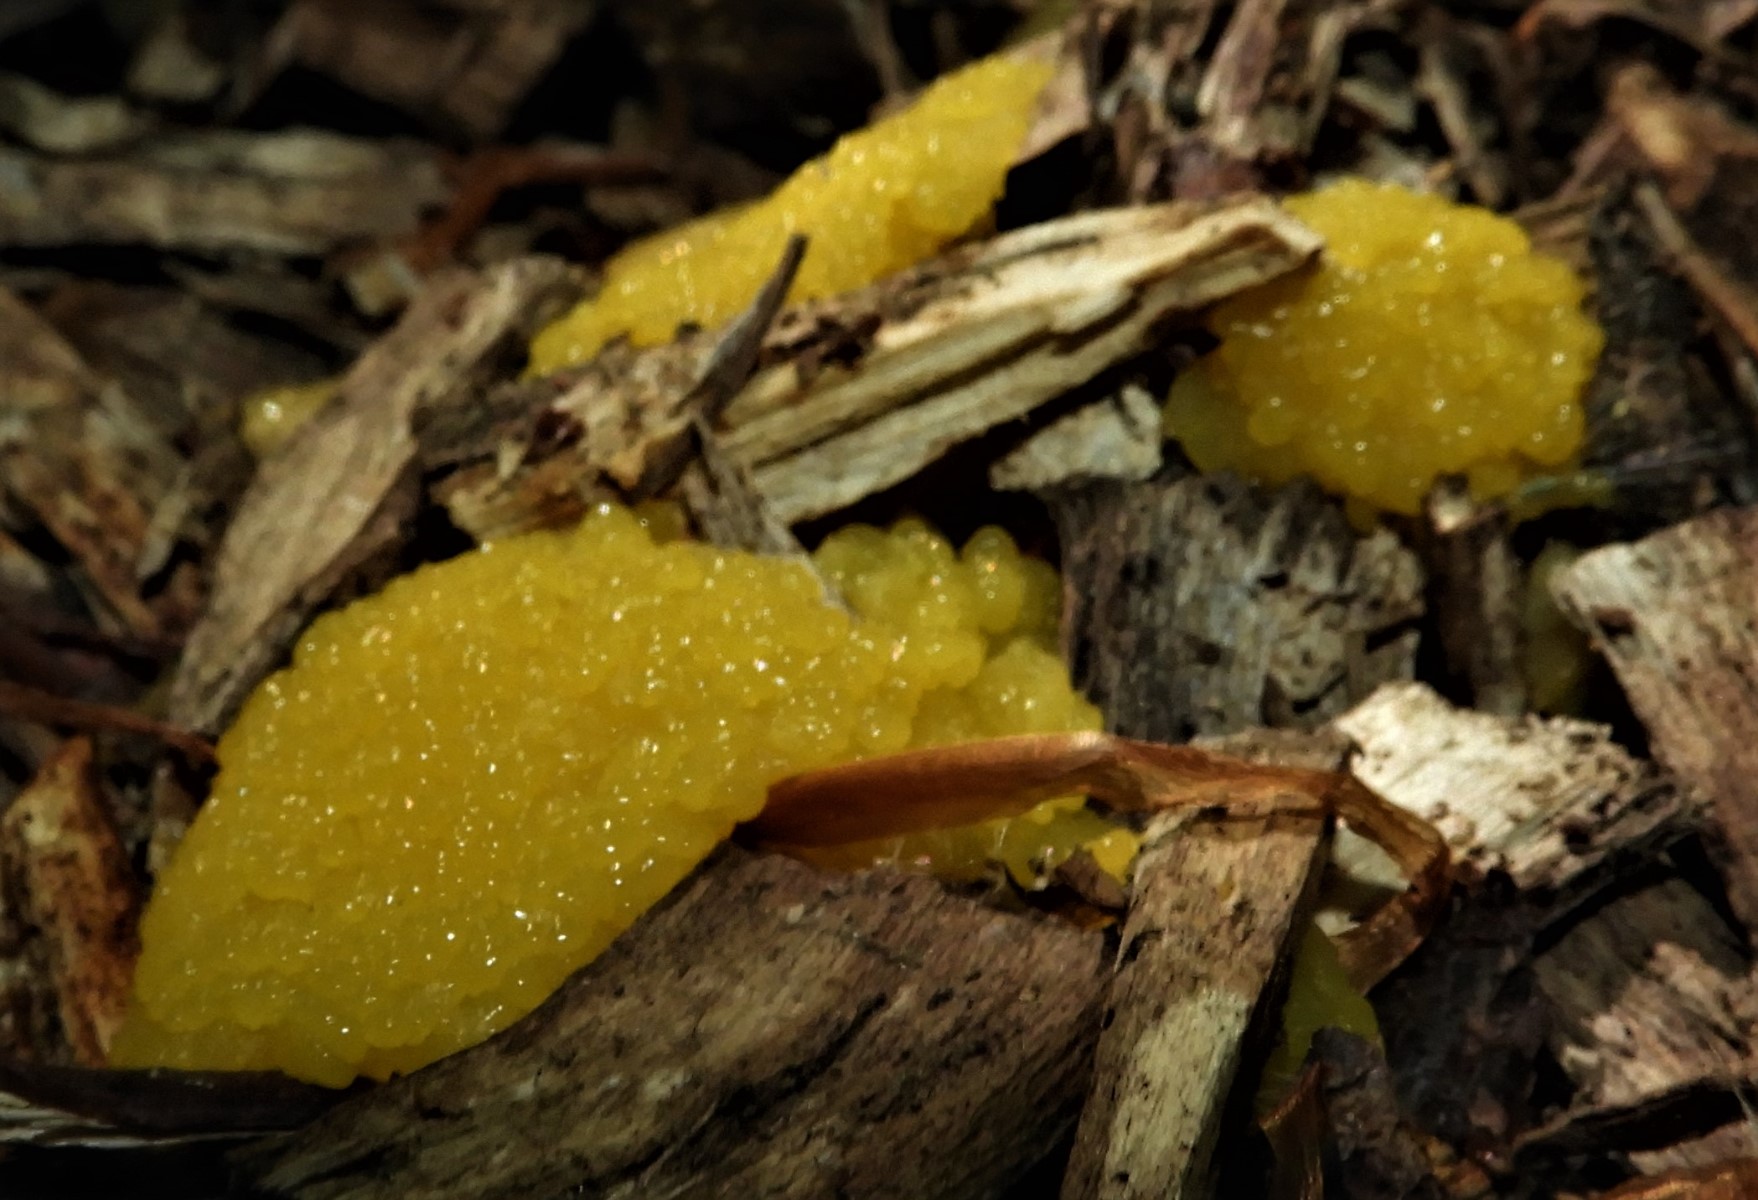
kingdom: Protozoa
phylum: Mycetozoa
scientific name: Mycetozoa
